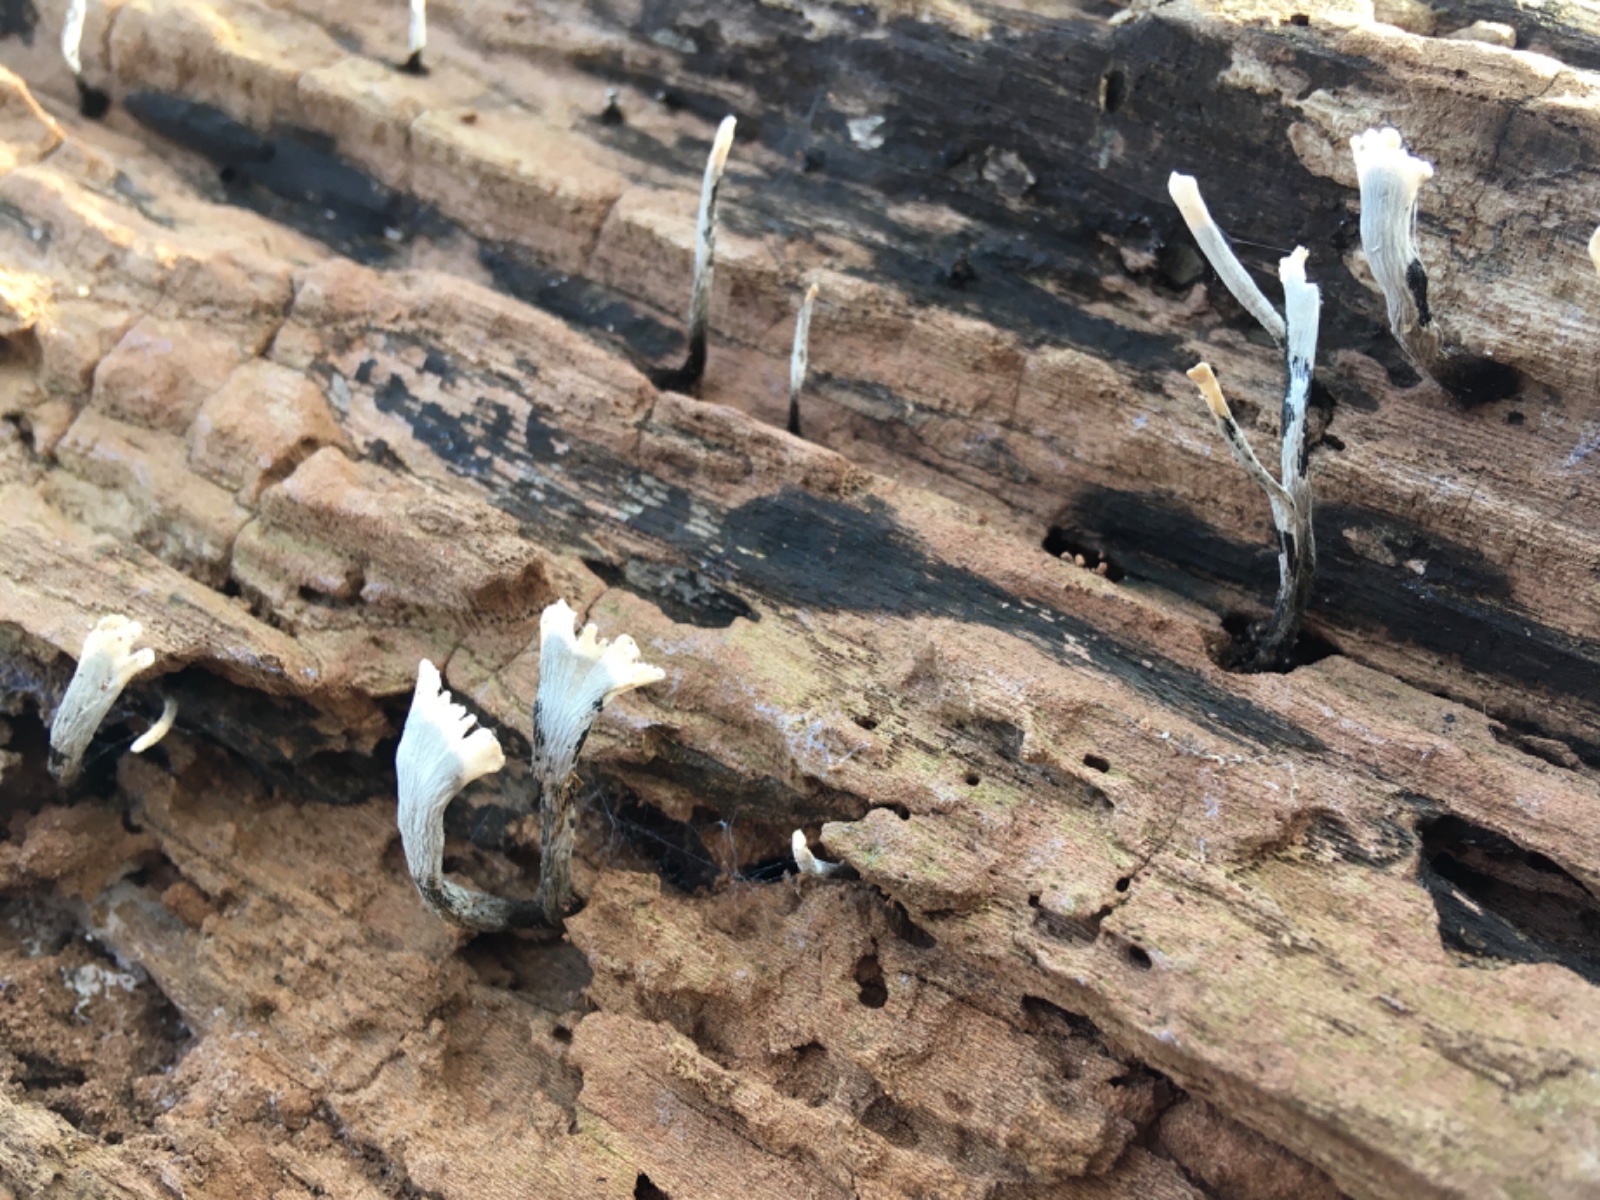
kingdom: Fungi
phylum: Ascomycota
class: Sordariomycetes
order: Xylariales
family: Xylariaceae
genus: Xylaria
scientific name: Xylaria hypoxylon
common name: grenet stødsvamp
